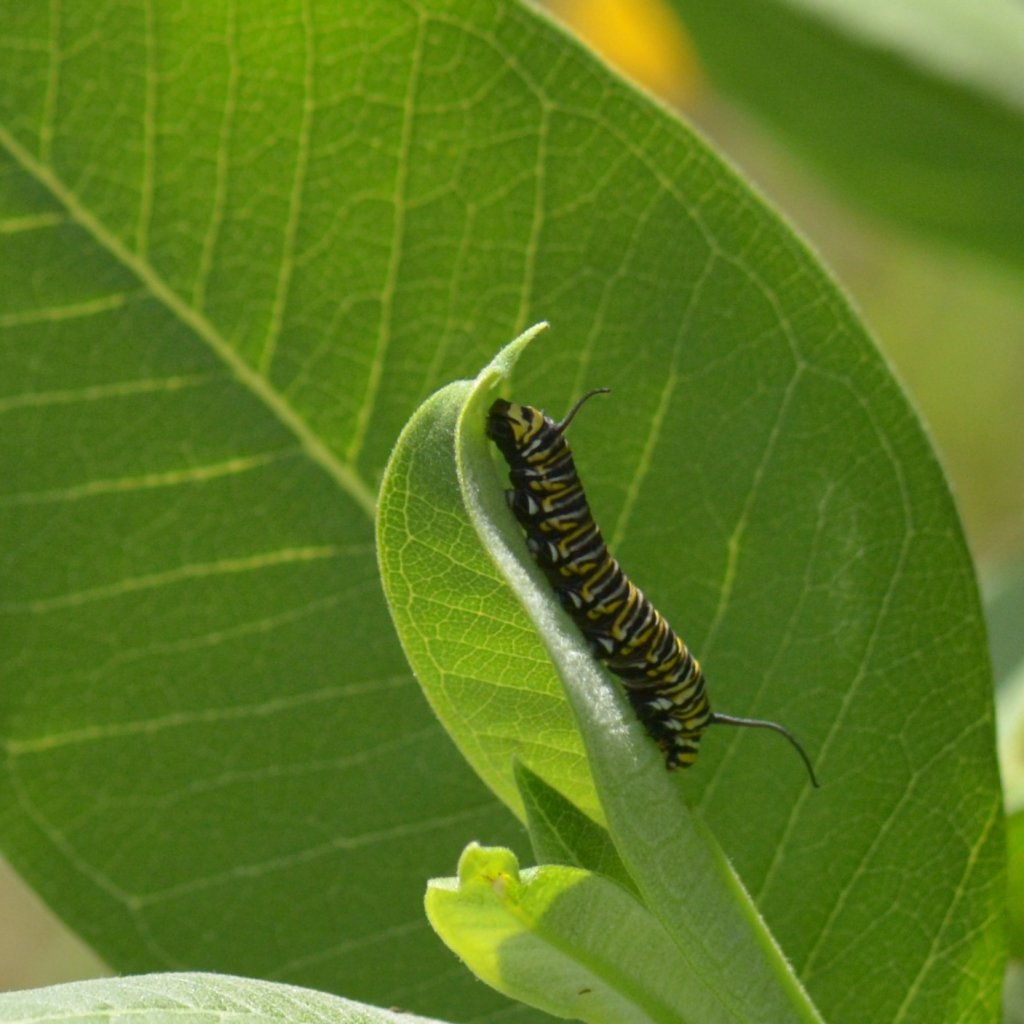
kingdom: Animalia
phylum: Arthropoda
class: Insecta
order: Lepidoptera
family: Nymphalidae
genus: Danaus
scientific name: Danaus plexippus
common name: Monarch
